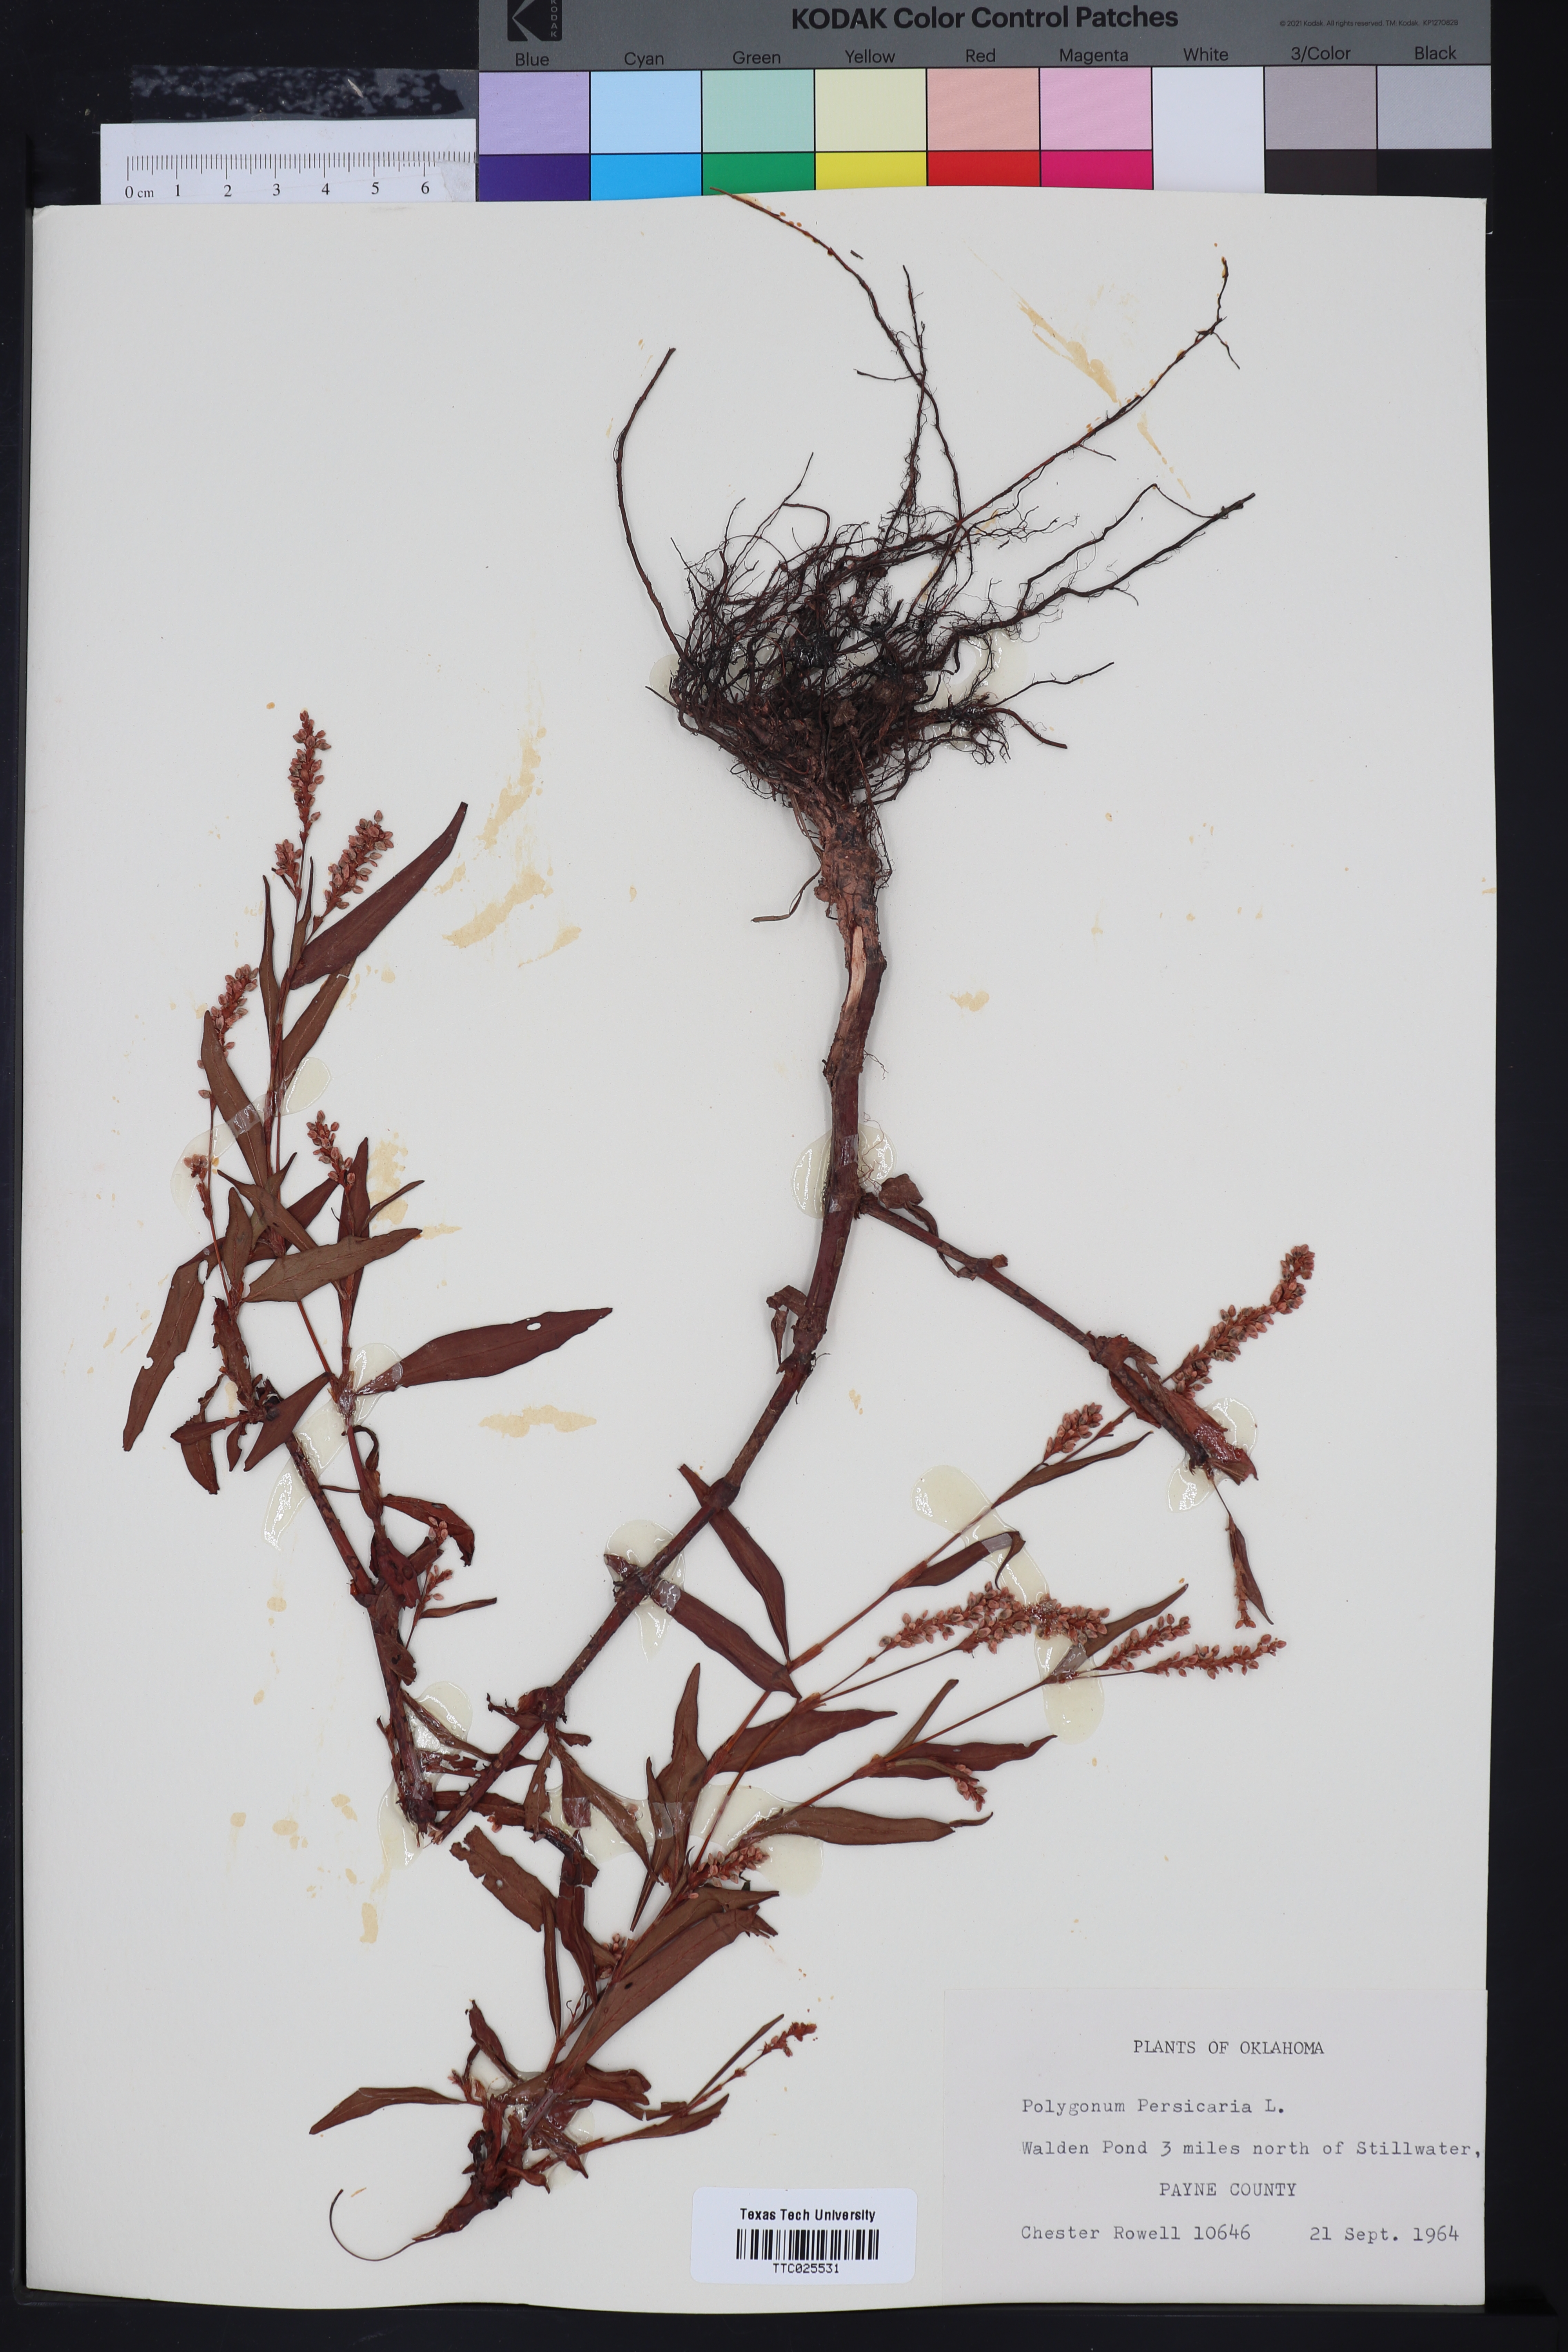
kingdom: Plantae
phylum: Tracheophyta
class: Magnoliopsida
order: Caryophyllales
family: Polygonaceae
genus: Persicaria
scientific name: Persicaria maculosa
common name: Redshank
